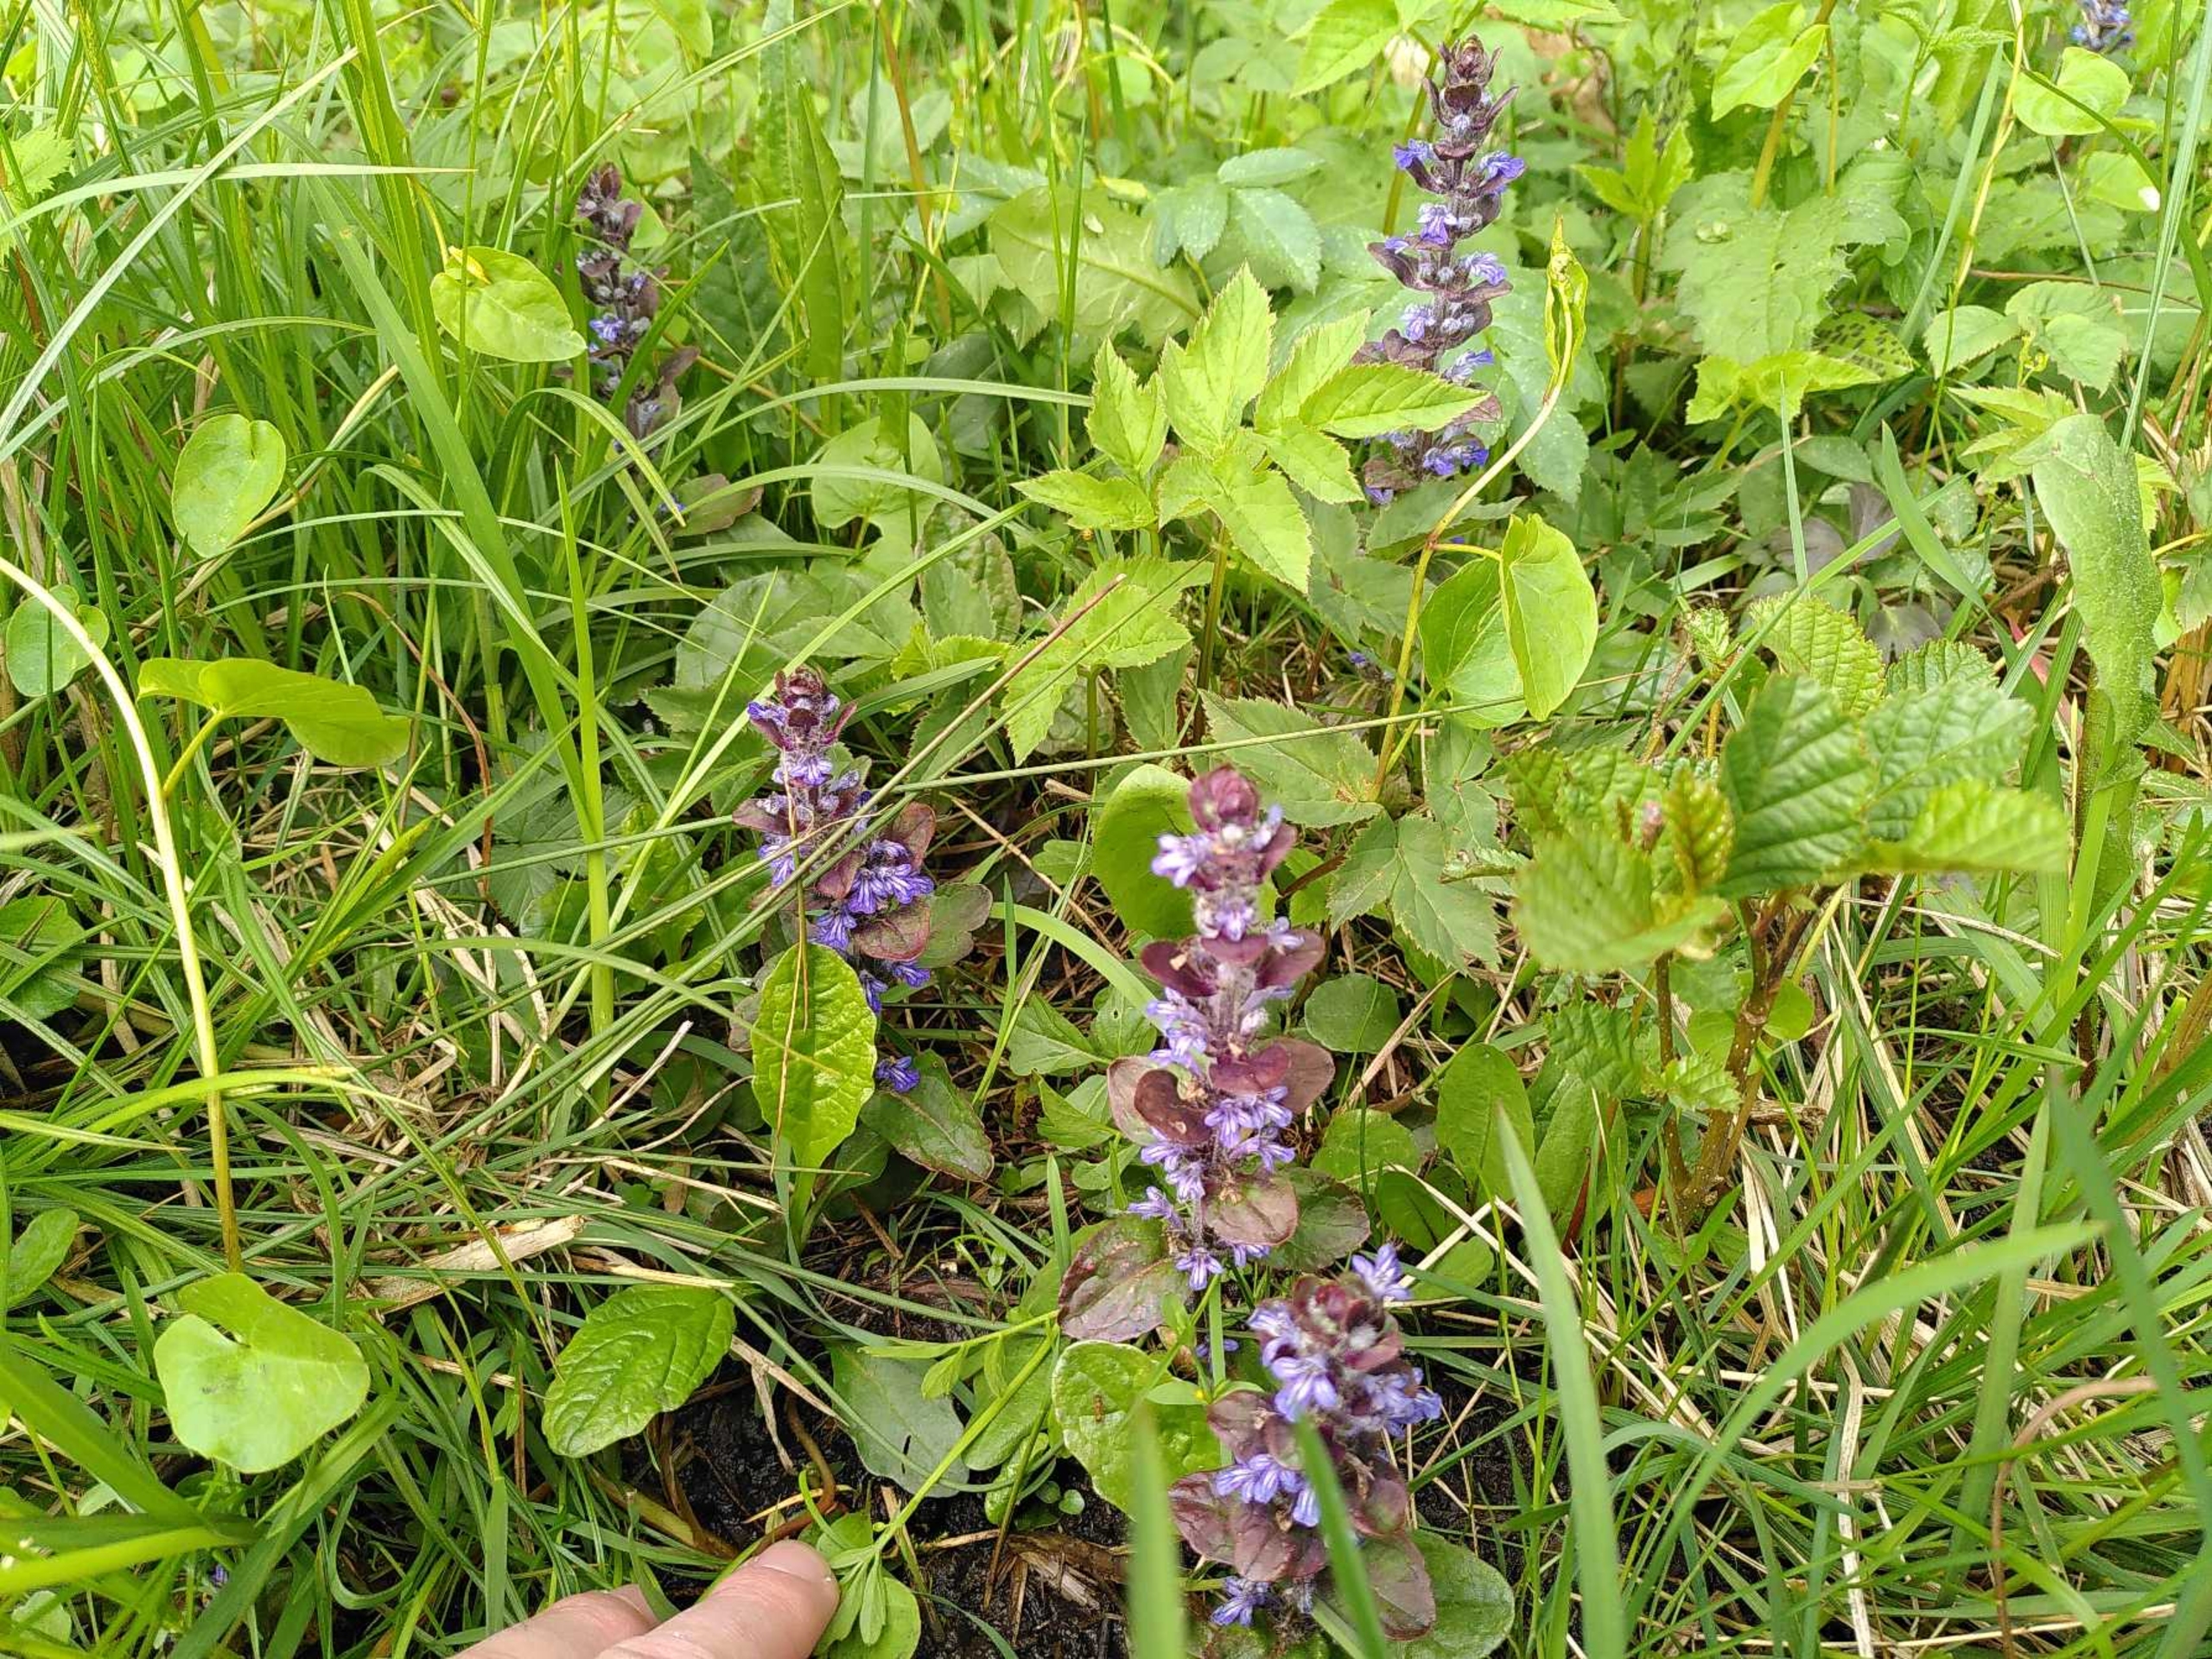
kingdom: Plantae
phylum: Tracheophyta
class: Magnoliopsida
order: Lamiales
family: Lamiaceae
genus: Ajuga
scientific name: Ajuga reptans
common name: Krybende læbeløs
